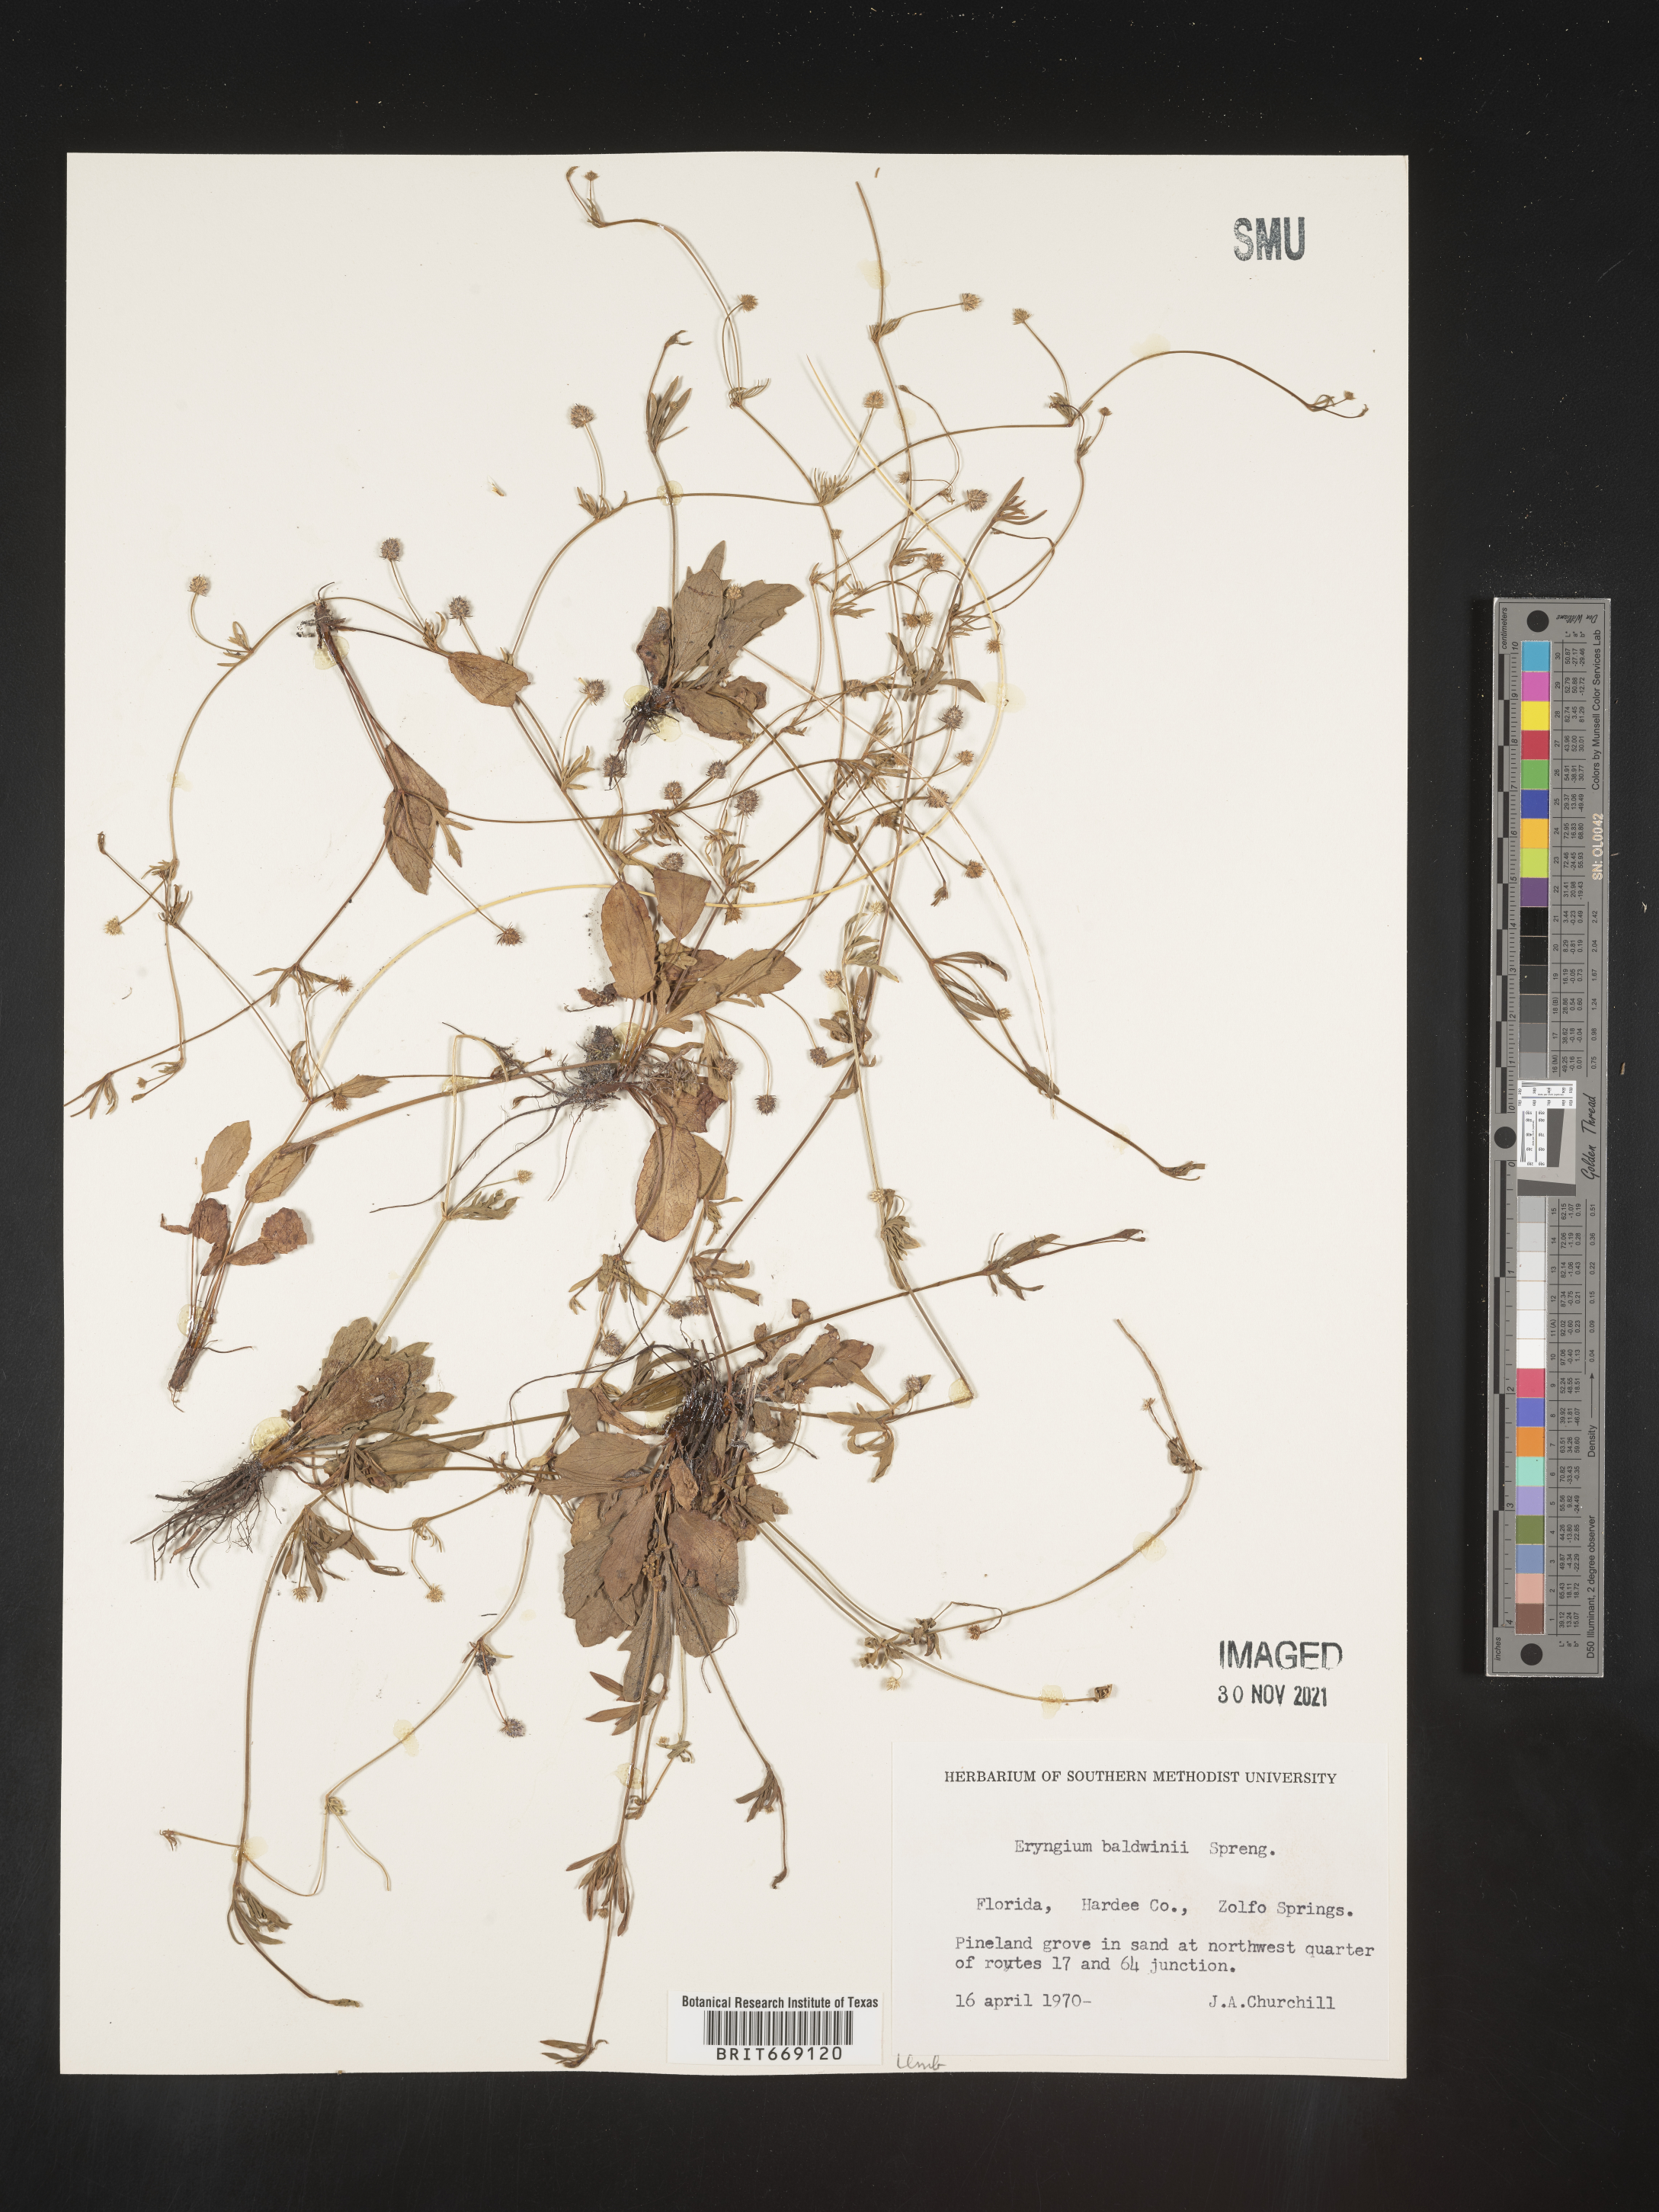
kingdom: Plantae
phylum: Tracheophyta
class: Magnoliopsida
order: Apiales
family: Apiaceae
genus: Eryngium
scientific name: Eryngium baldwinii
